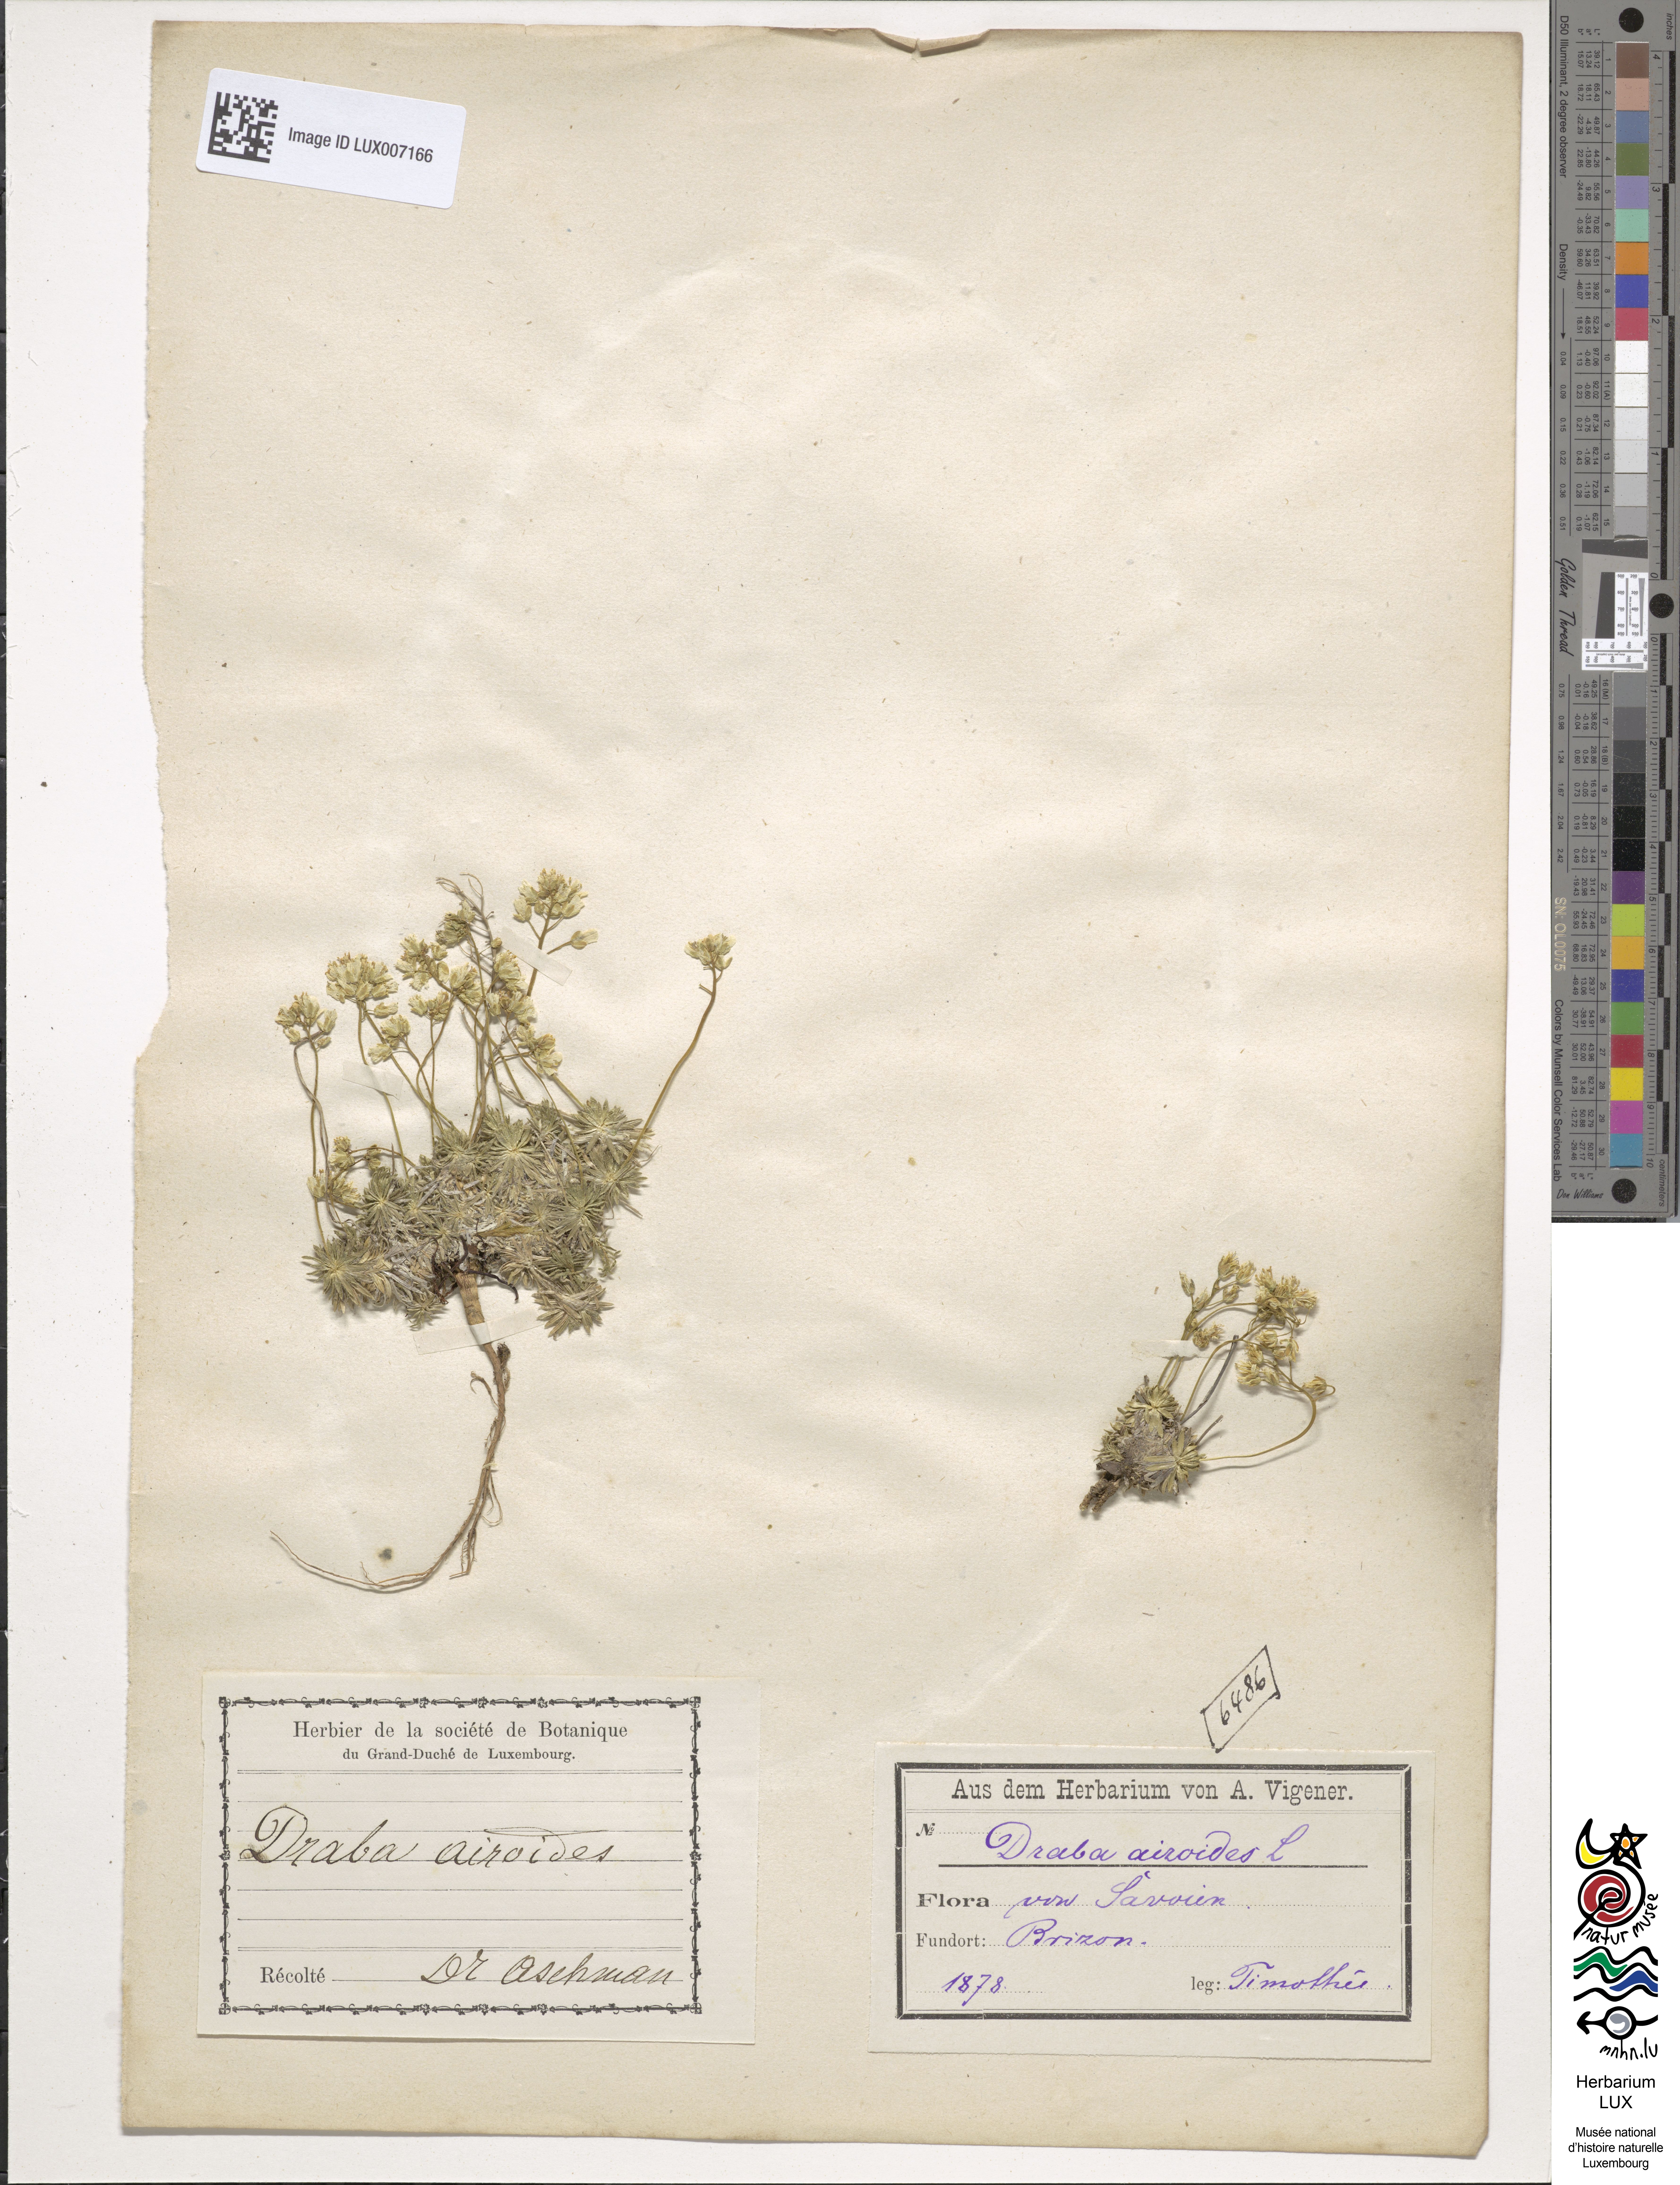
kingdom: Plantae
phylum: Tracheophyta
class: Magnoliopsida
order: Brassicales
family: Brassicaceae
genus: Draba
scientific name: Draba aizoides
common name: Yellow whitlowgrass
